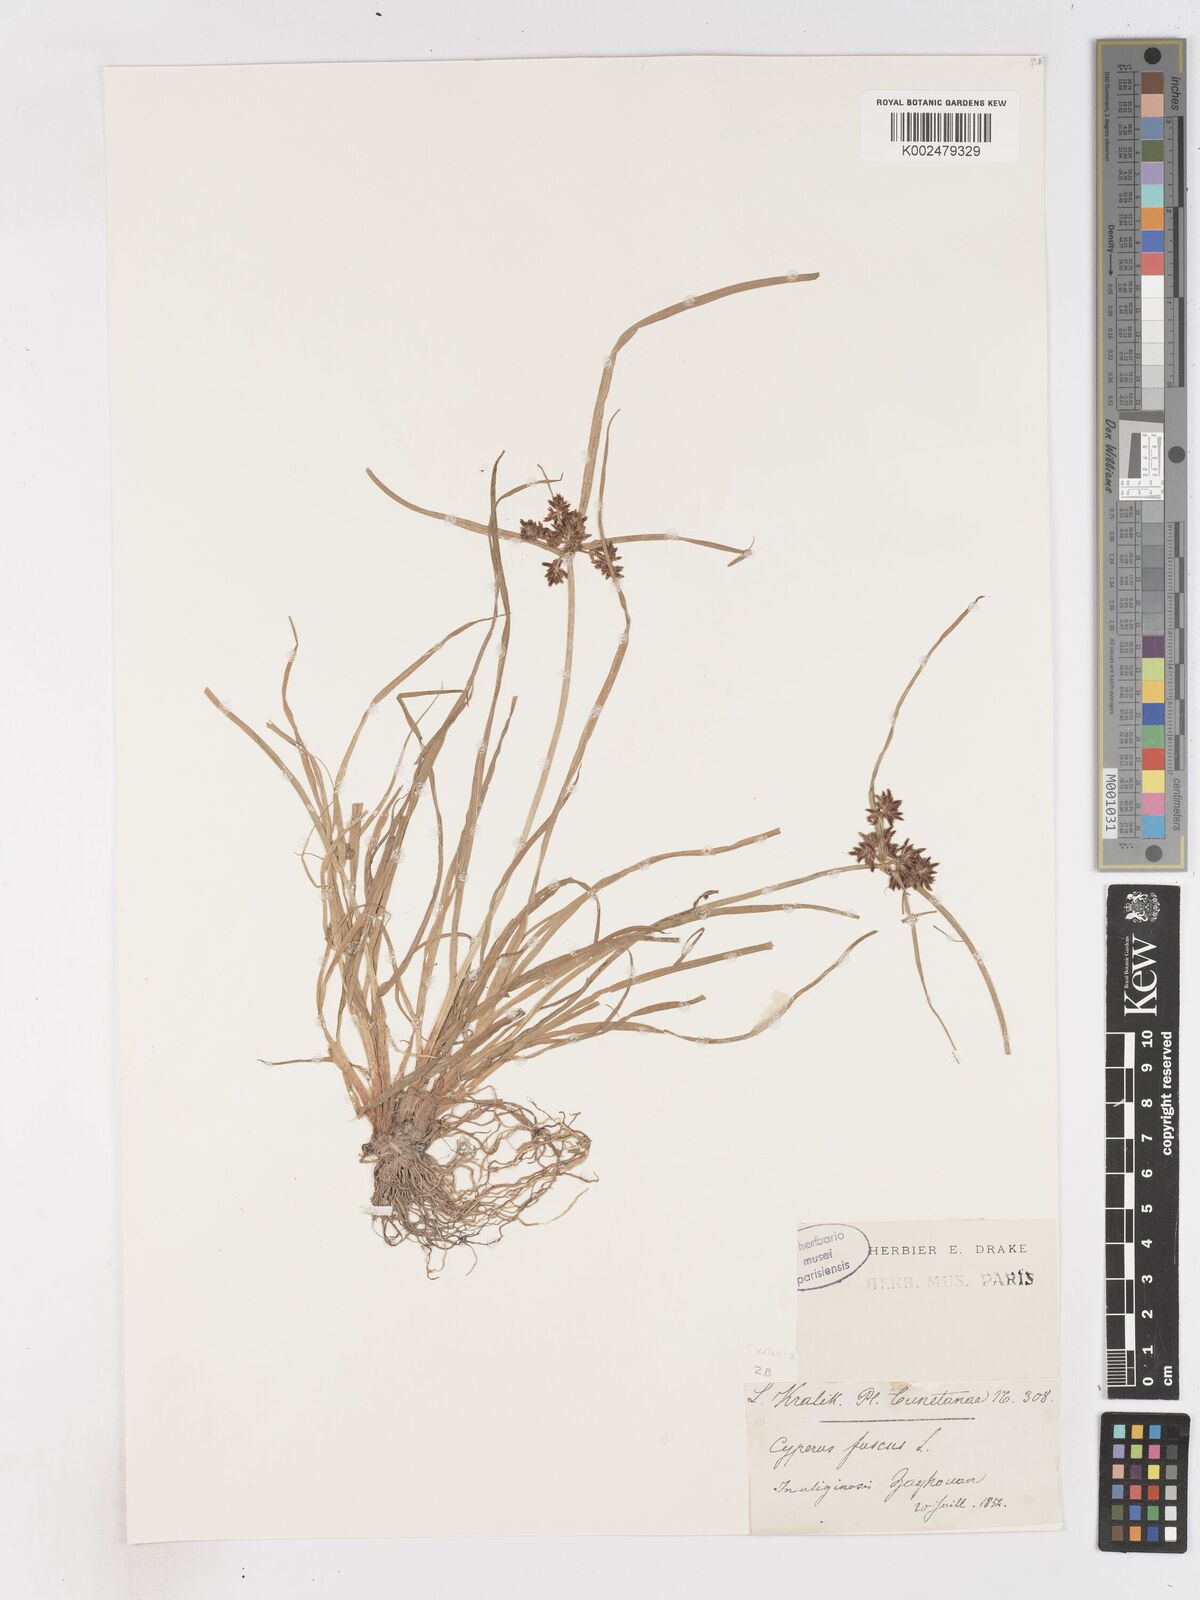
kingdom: Plantae
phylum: Tracheophyta
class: Liliopsida
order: Poales
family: Cyperaceae
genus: Cyperus
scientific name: Cyperus fuscus
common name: Brown galingale
